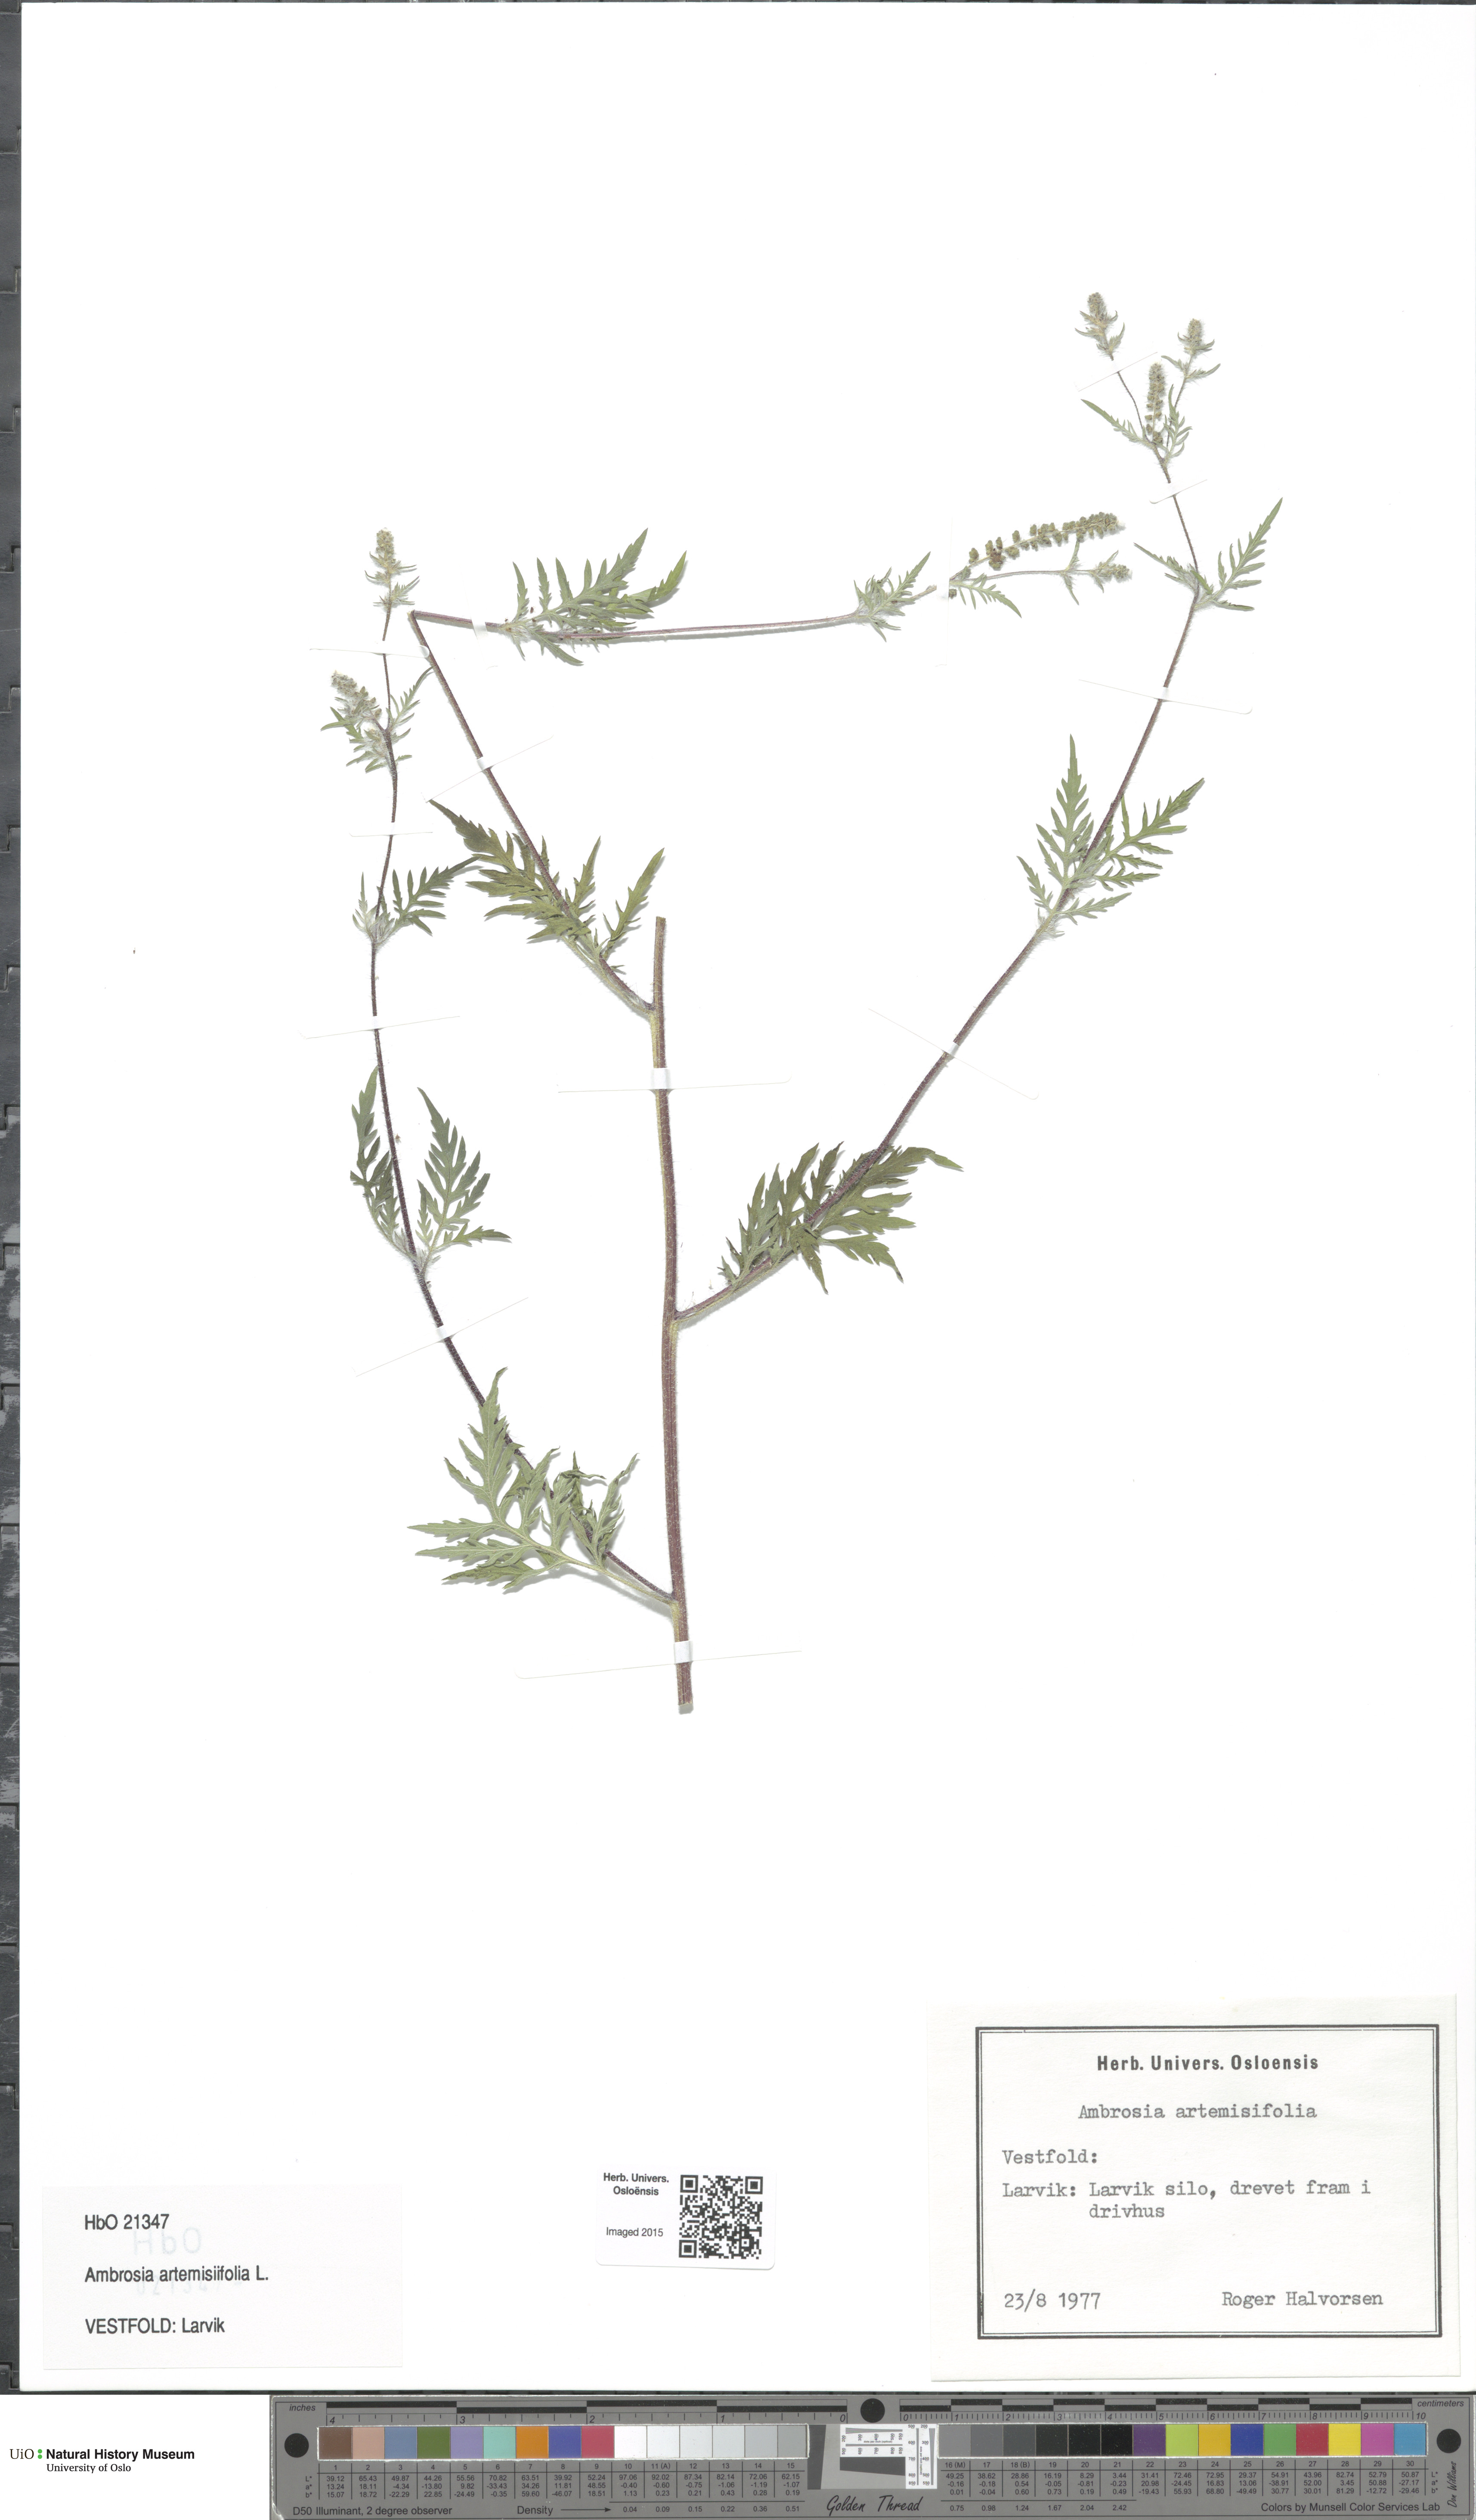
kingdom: Plantae
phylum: Tracheophyta
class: Magnoliopsida
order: Asterales
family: Asteraceae
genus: Ambrosia
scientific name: Ambrosia artemisiifolia
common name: Annual ragweed
